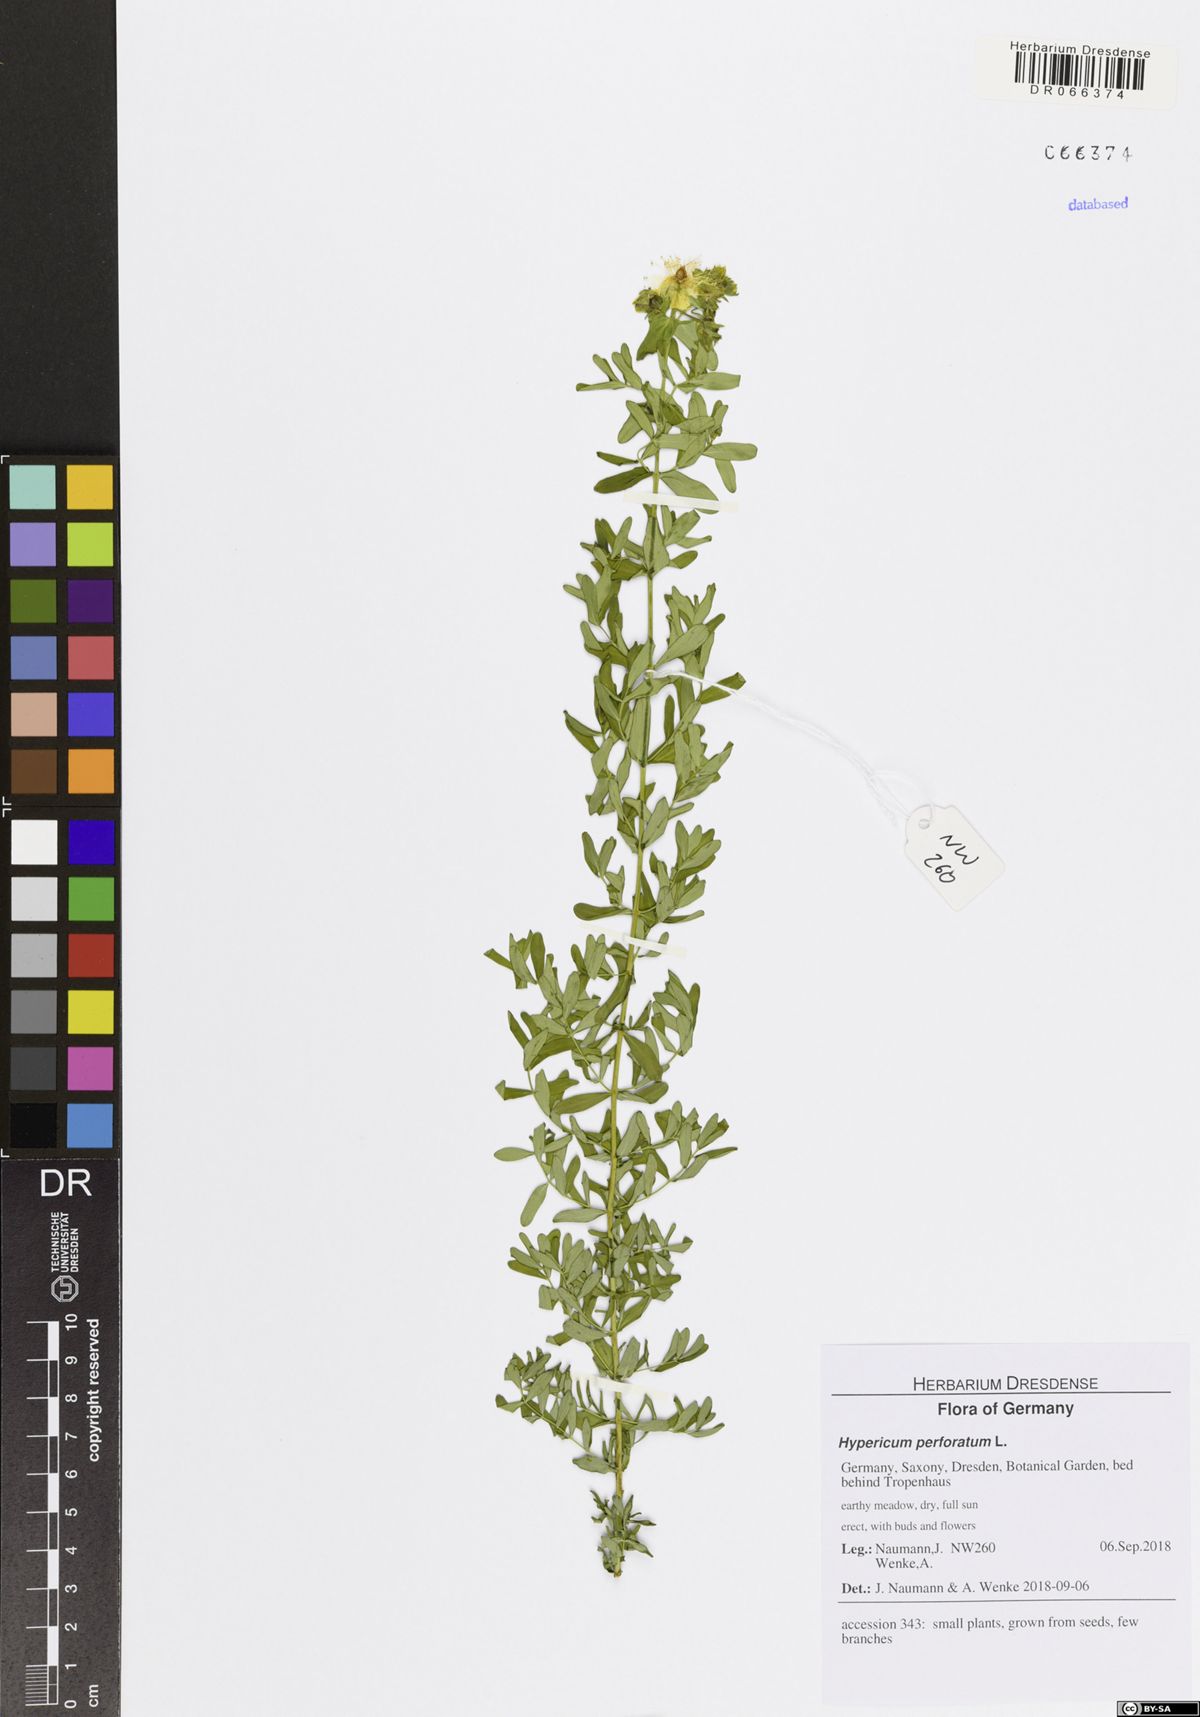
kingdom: Plantae
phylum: Tracheophyta
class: Magnoliopsida
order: Malpighiales
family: Hypericaceae
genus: Hypericum
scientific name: Hypericum perforatum
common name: Common st. johnswort
